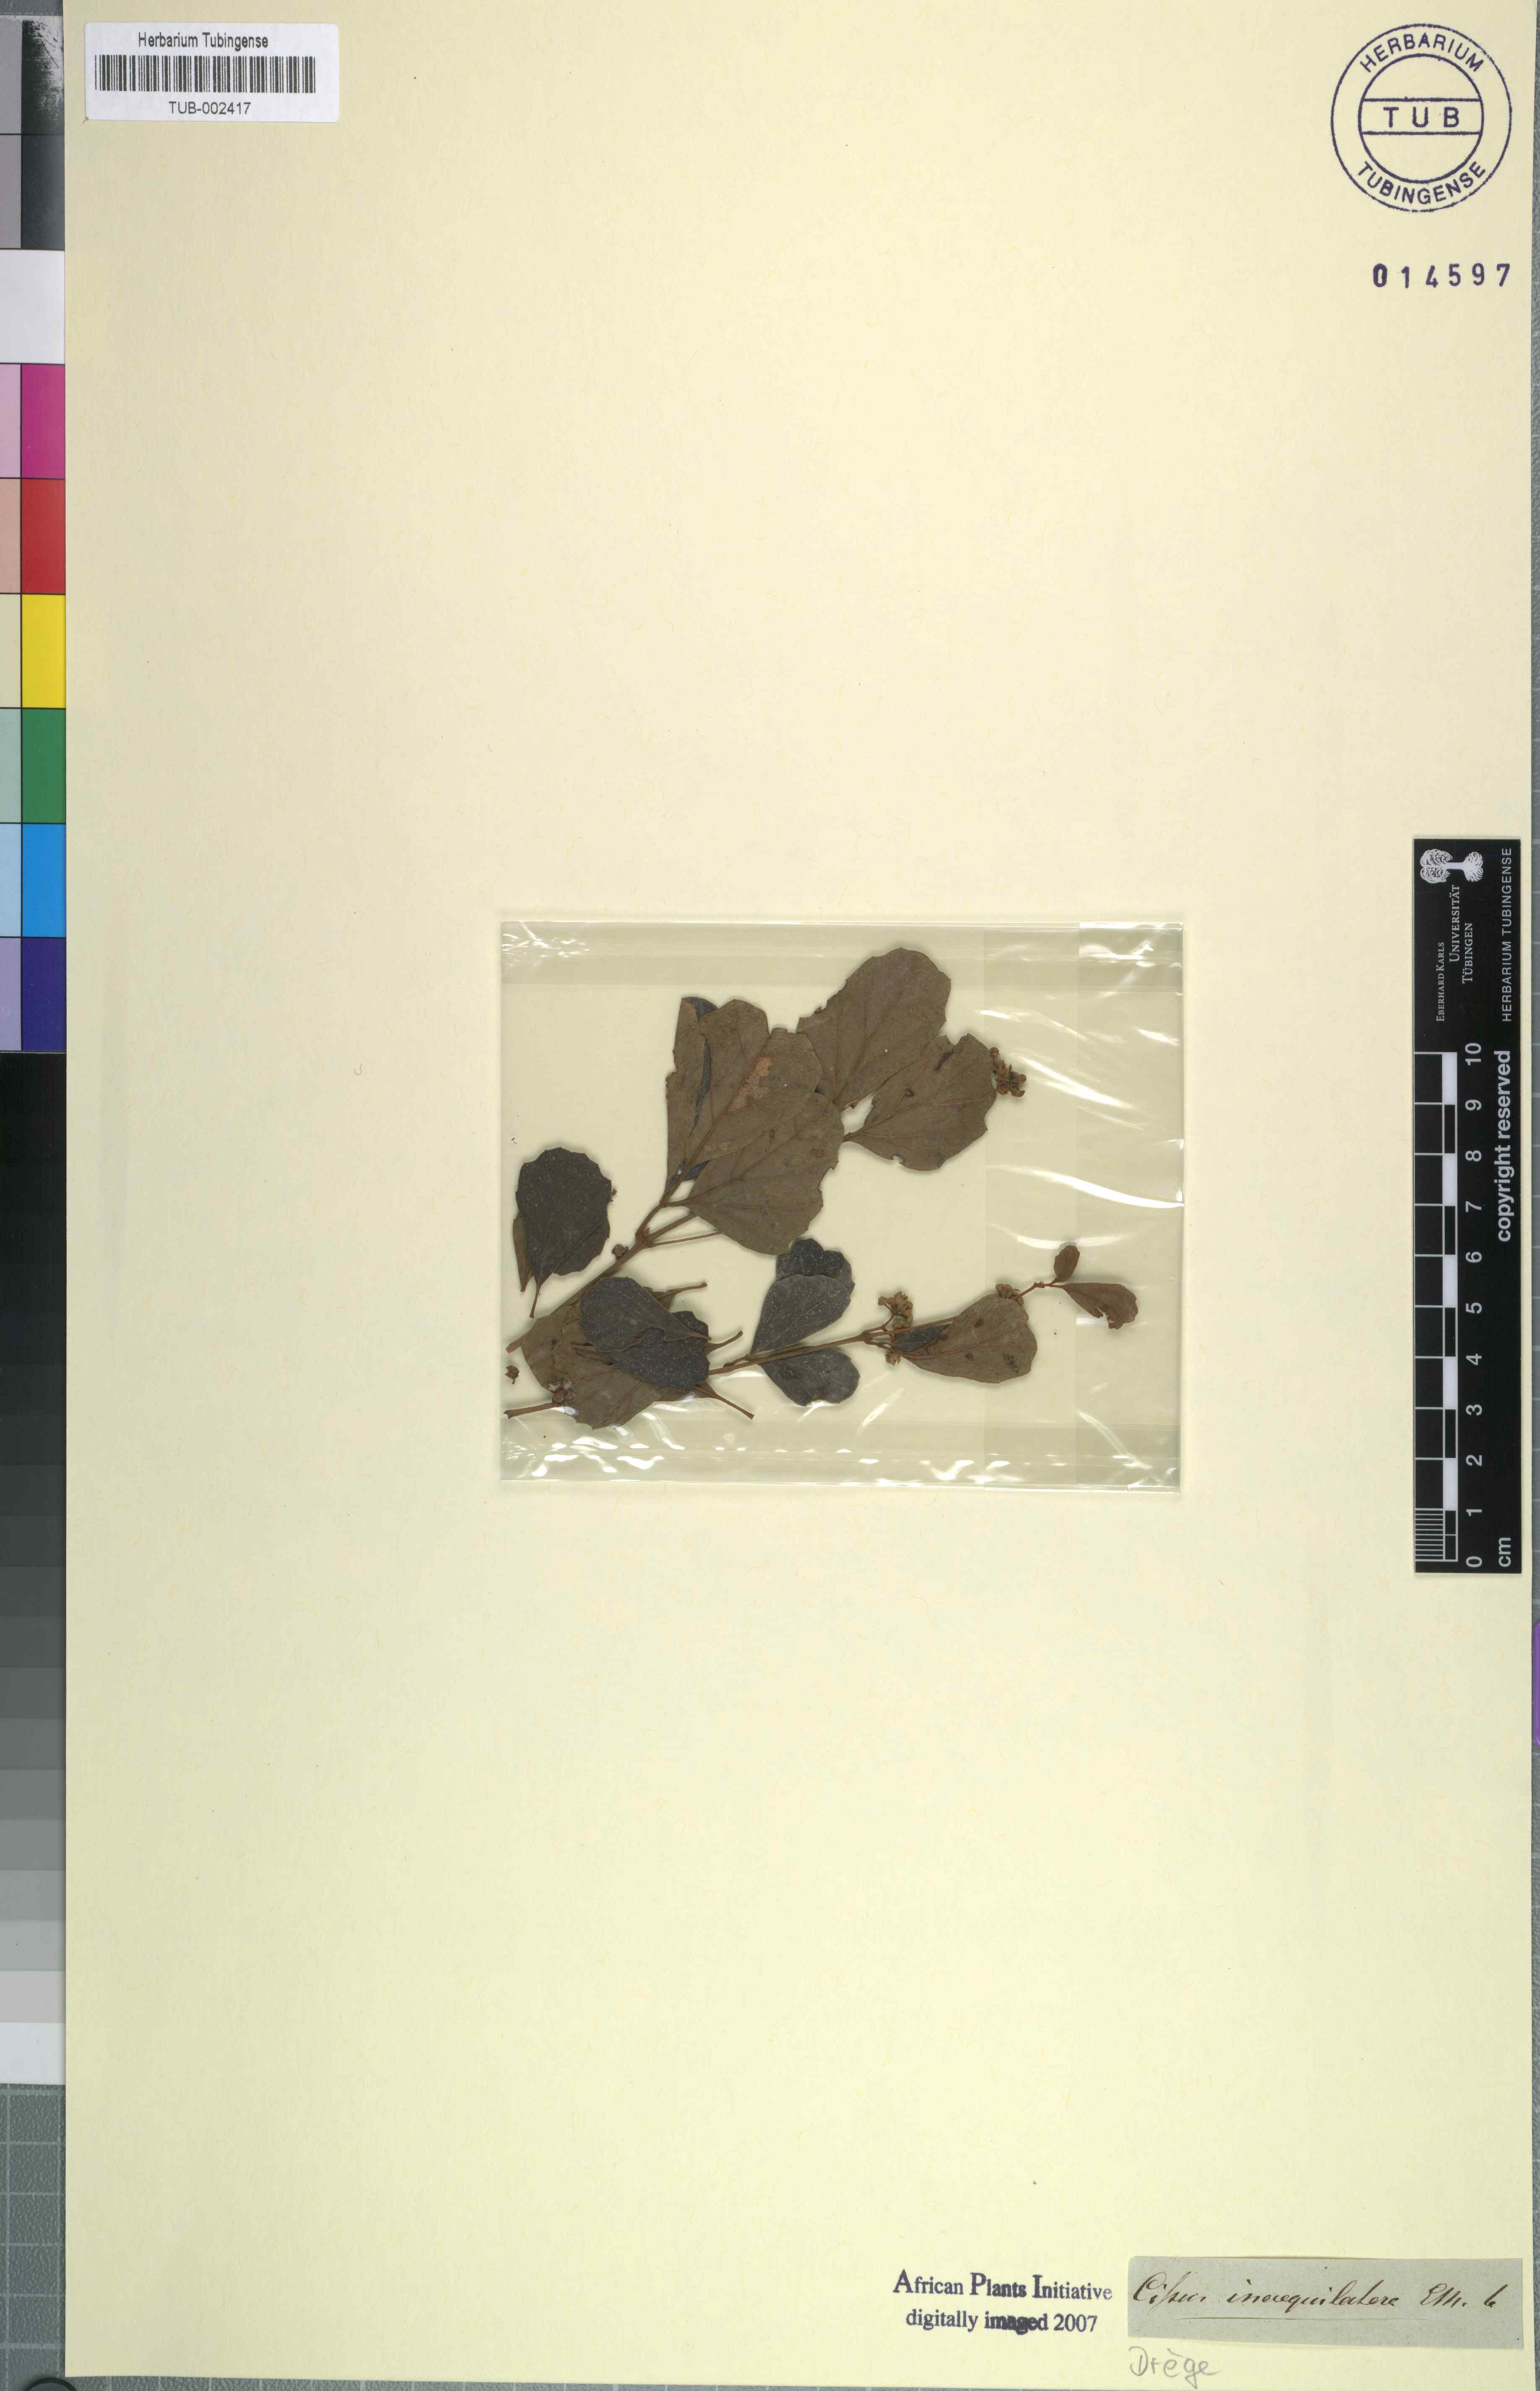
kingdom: Plantae
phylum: Tracheophyta
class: Magnoliopsida
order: Vitales
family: Vitaceae
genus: Cyphostemma
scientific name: Cyphostemma cirrhosum
